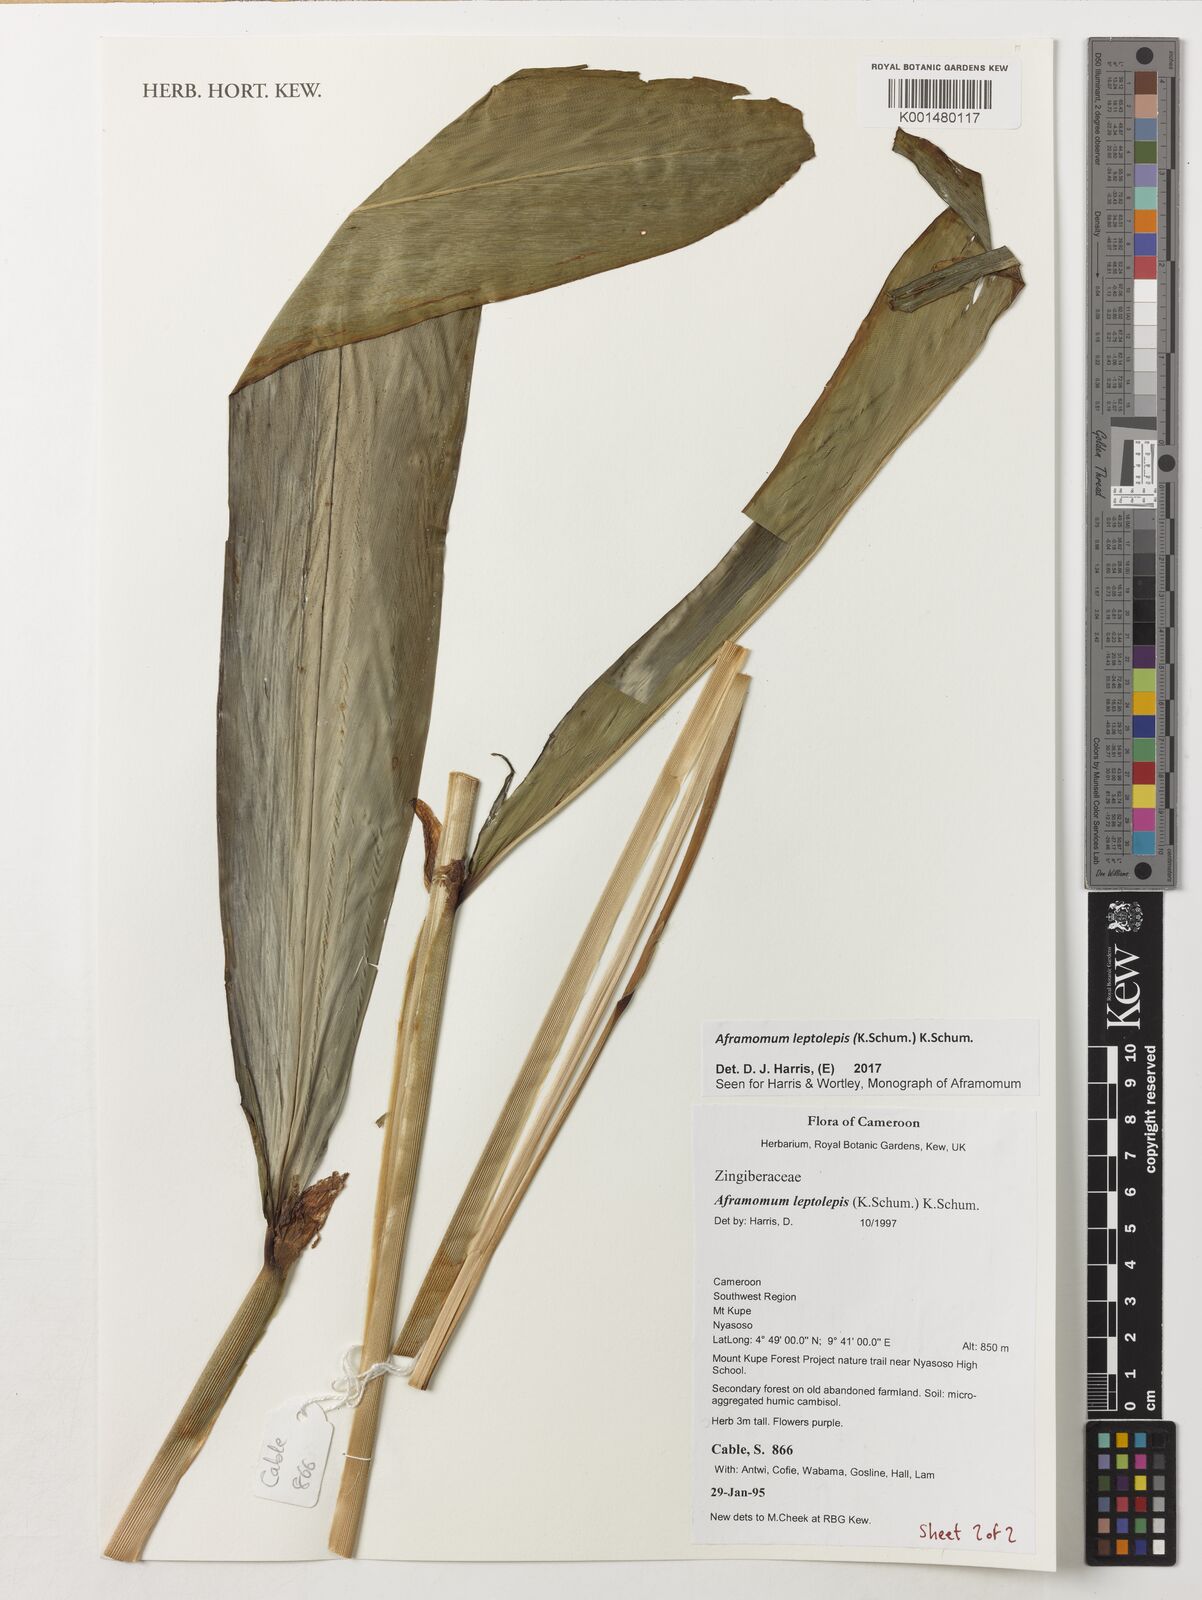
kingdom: Plantae
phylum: Tracheophyta
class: Liliopsida
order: Zingiberales
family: Zingiberaceae
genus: Aframomum
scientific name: Aframomum leptolepis
